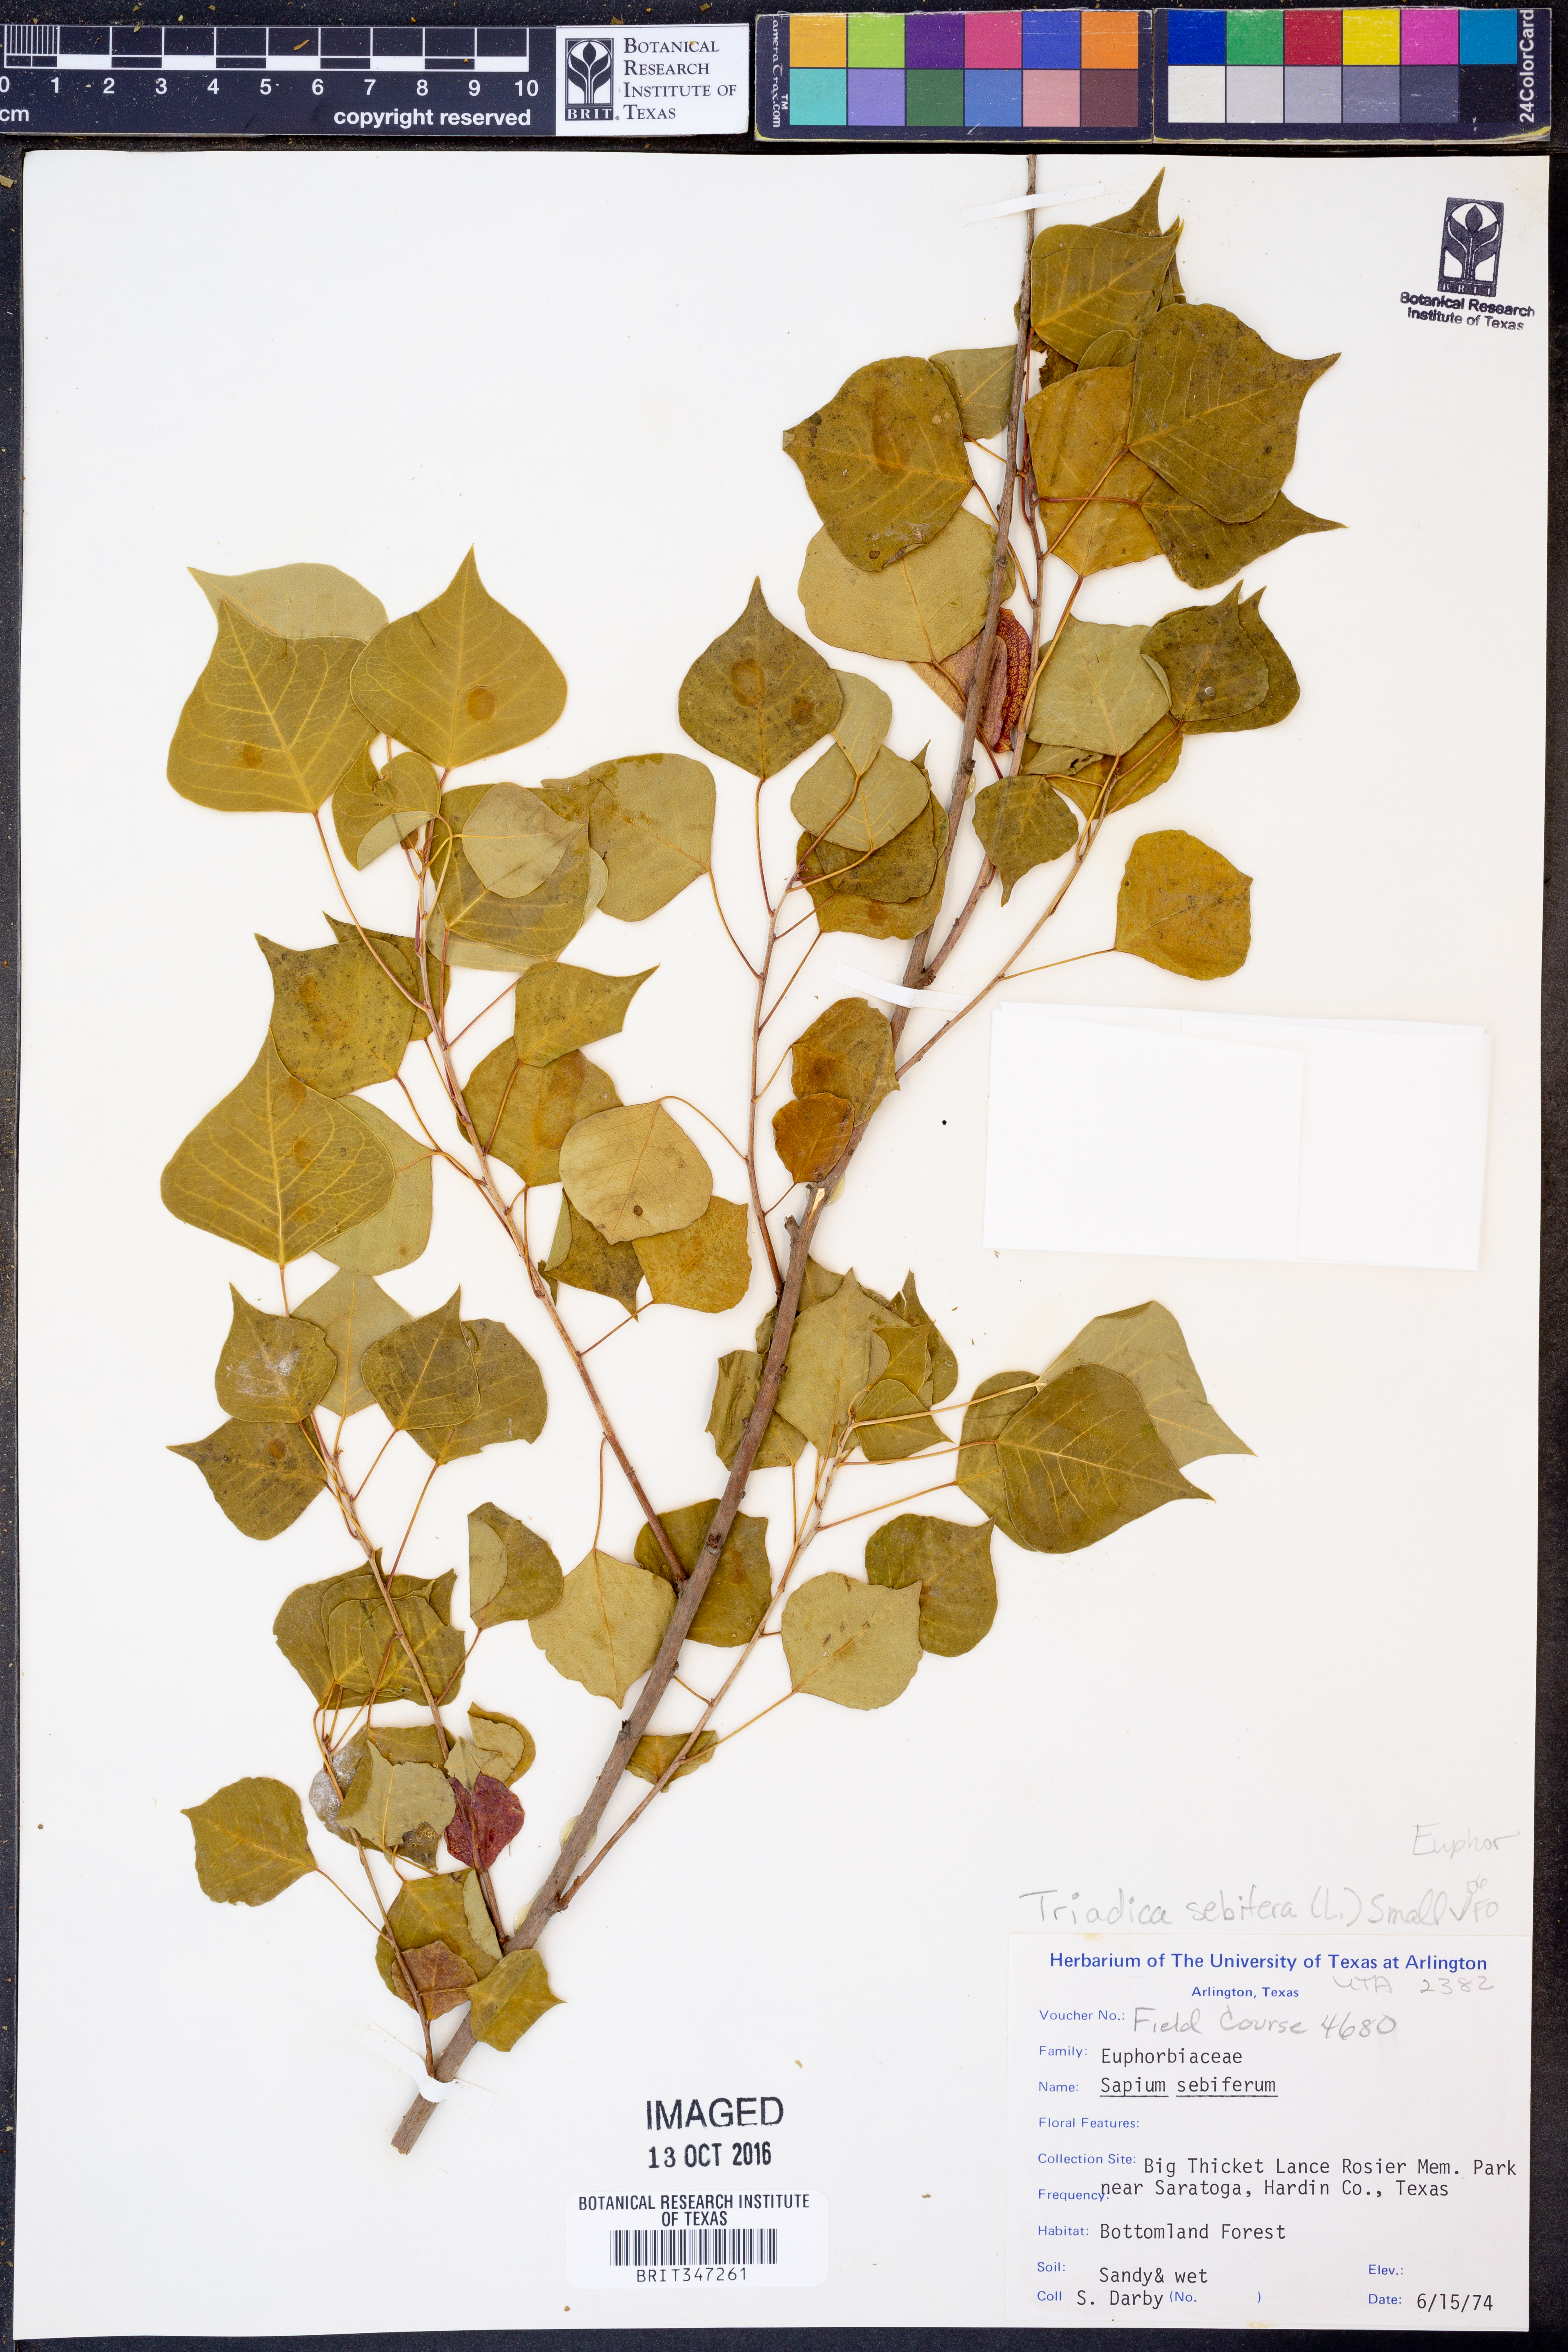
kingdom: Plantae
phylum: Tracheophyta
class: Magnoliopsida
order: Malpighiales
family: Euphorbiaceae
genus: Triadica
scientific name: Triadica sebifera
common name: Chinese tallow
